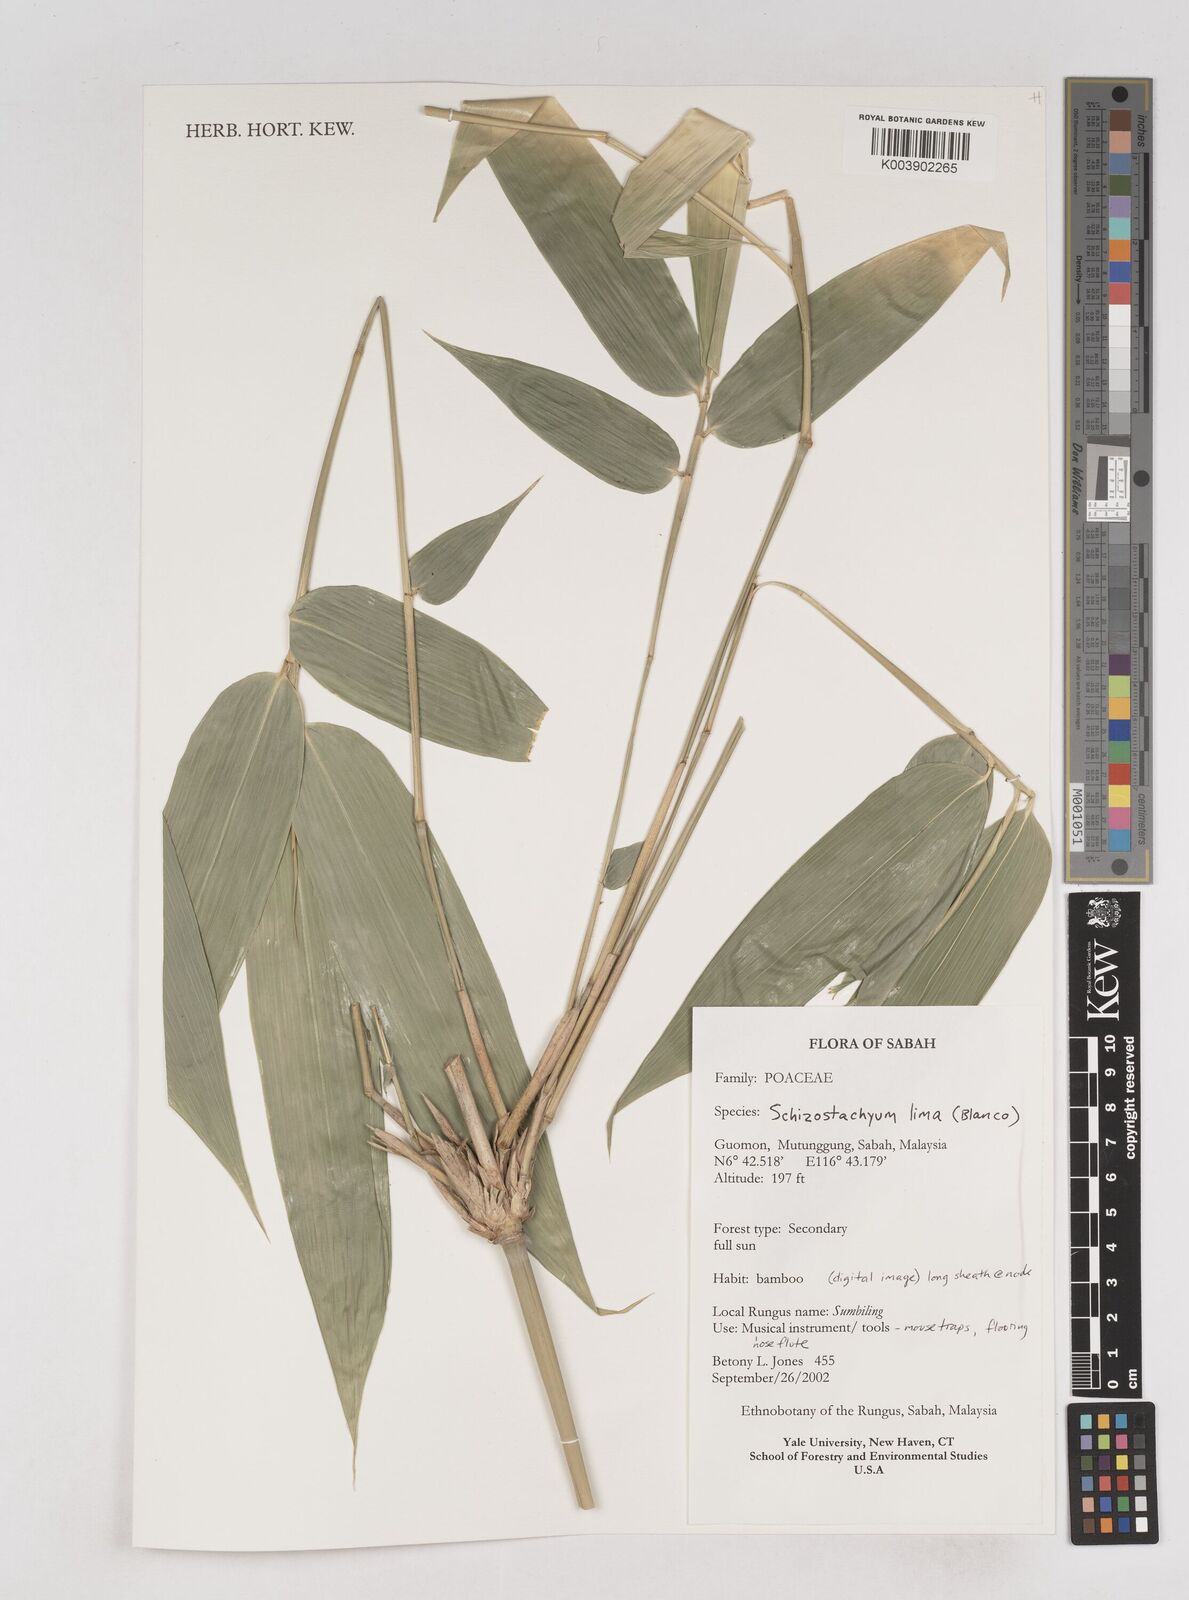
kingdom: Plantae
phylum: Tracheophyta
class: Liliopsida
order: Poales
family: Poaceae
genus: Schizostachyum
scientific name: Schizostachyum lima
